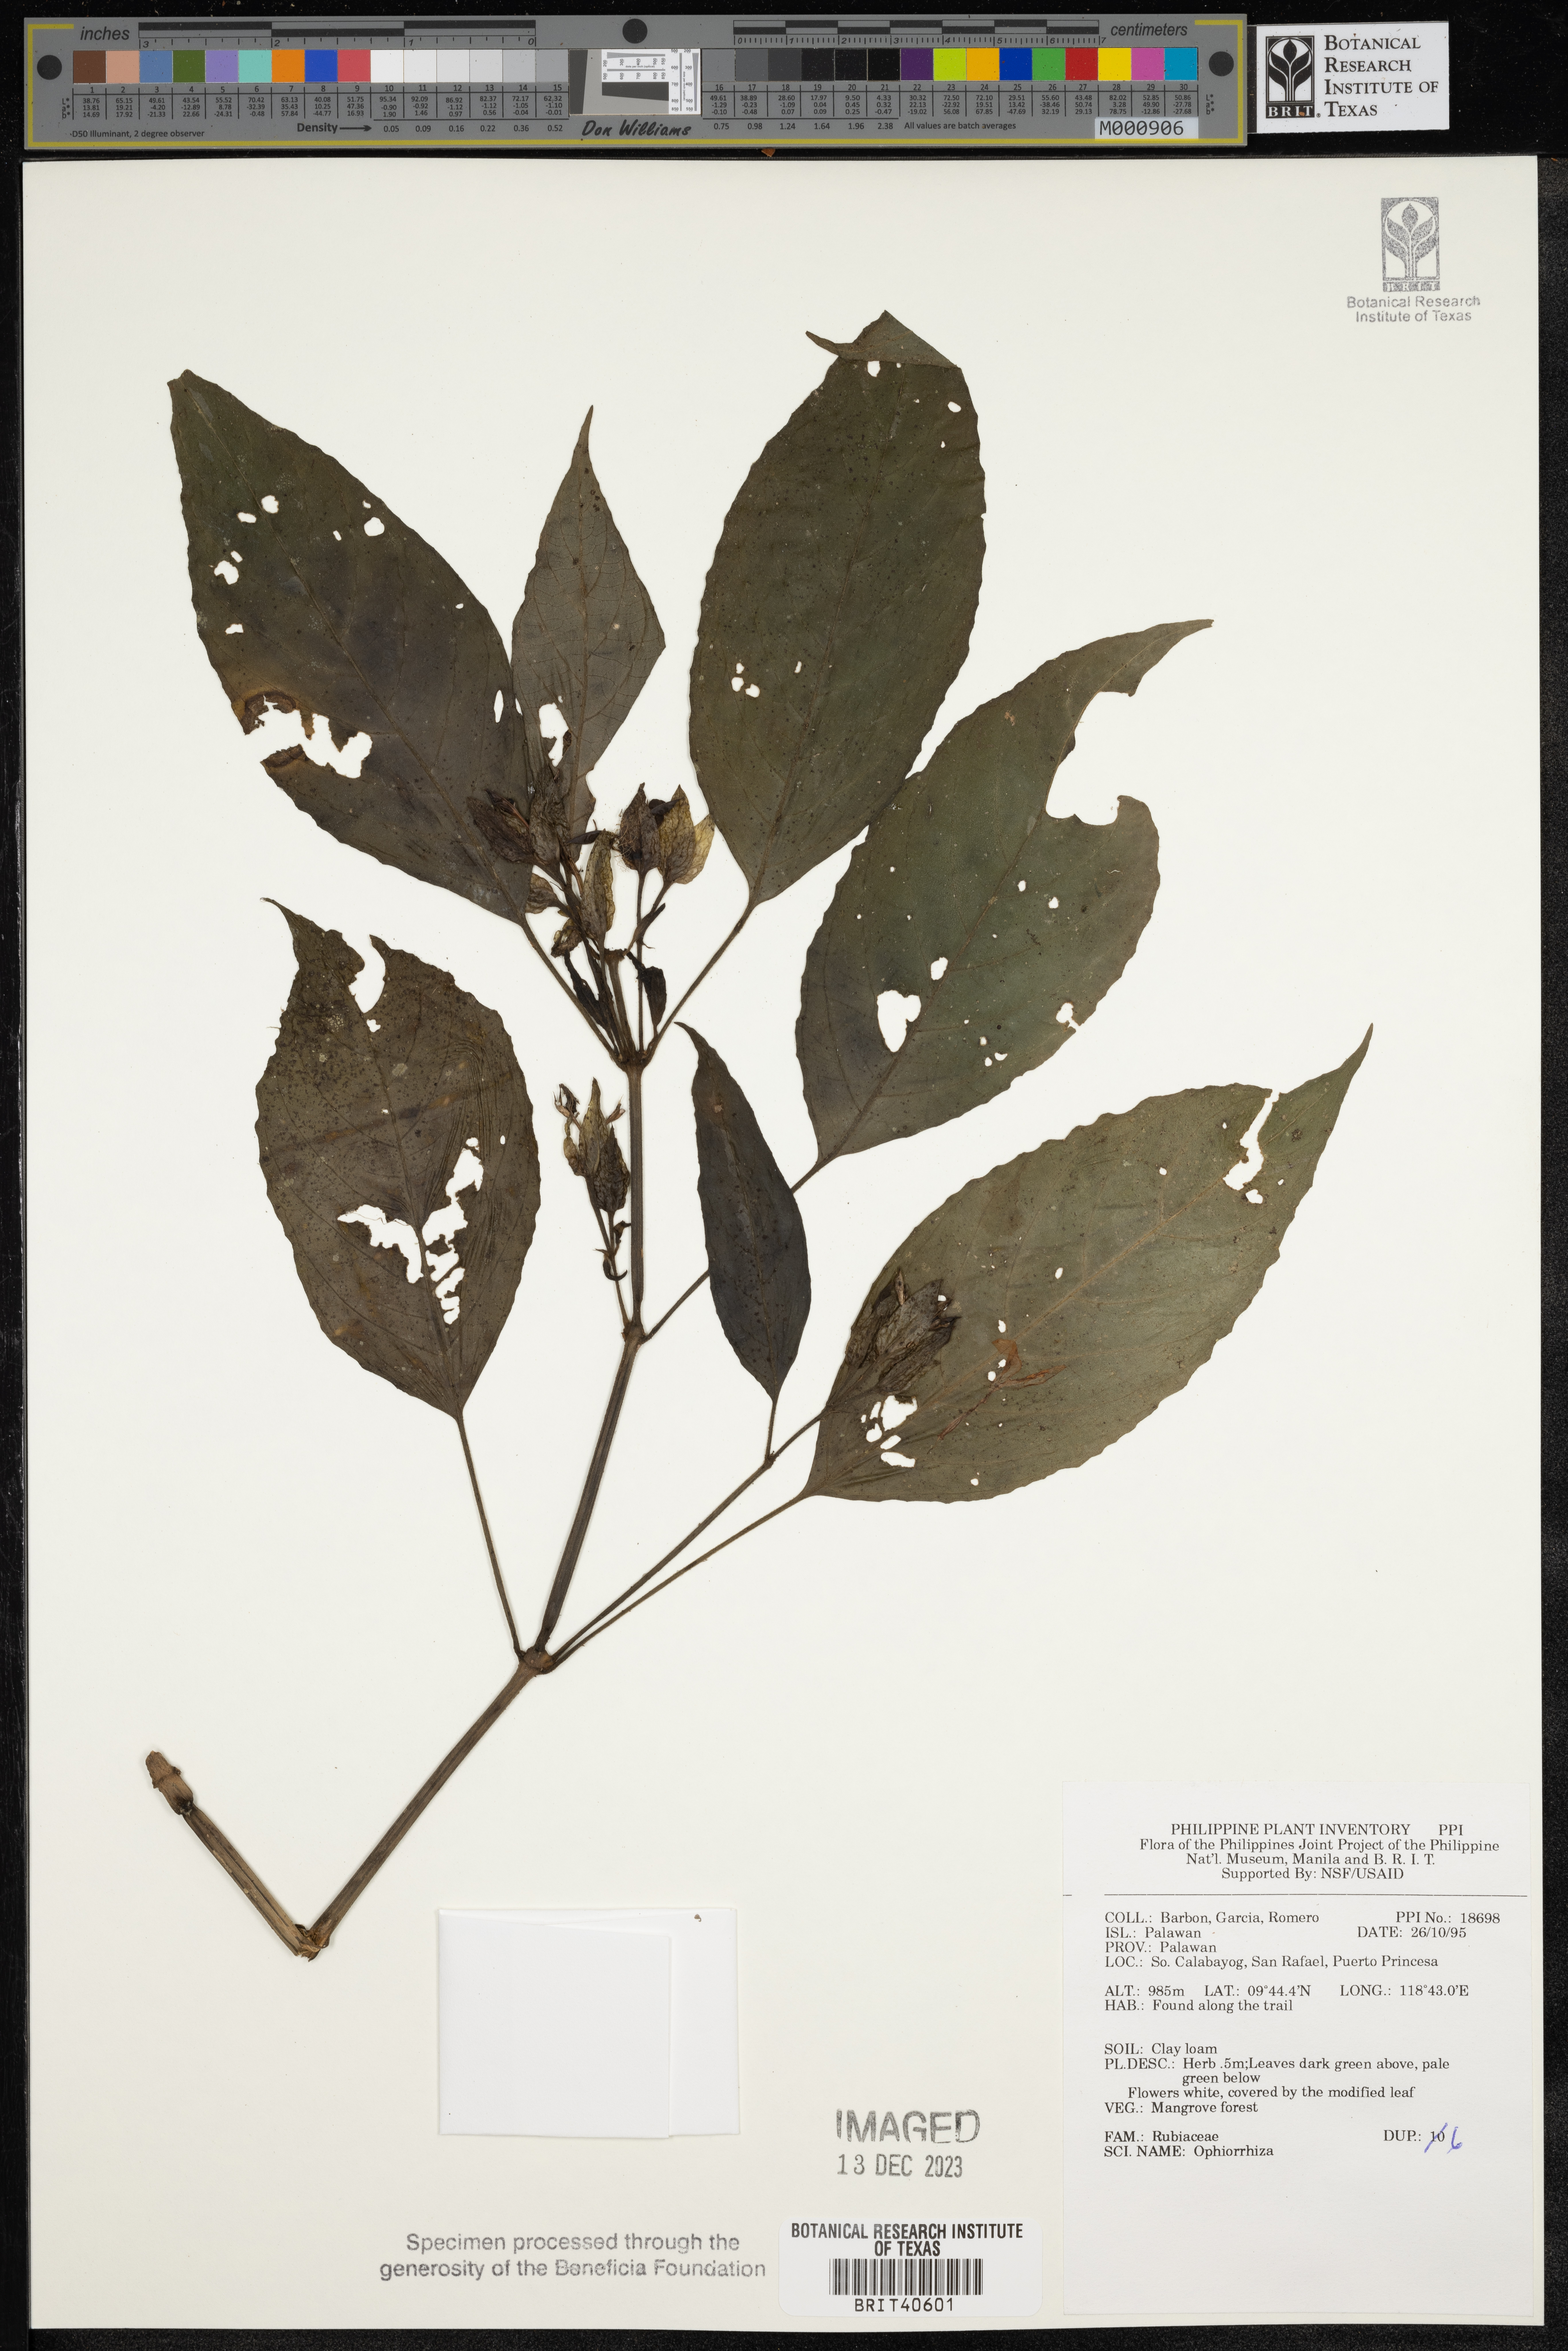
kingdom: Plantae
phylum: Tracheophyta
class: Magnoliopsida
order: Gentianales
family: Rubiaceae
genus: Ophiorrhiza
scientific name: Ophiorrhiza
